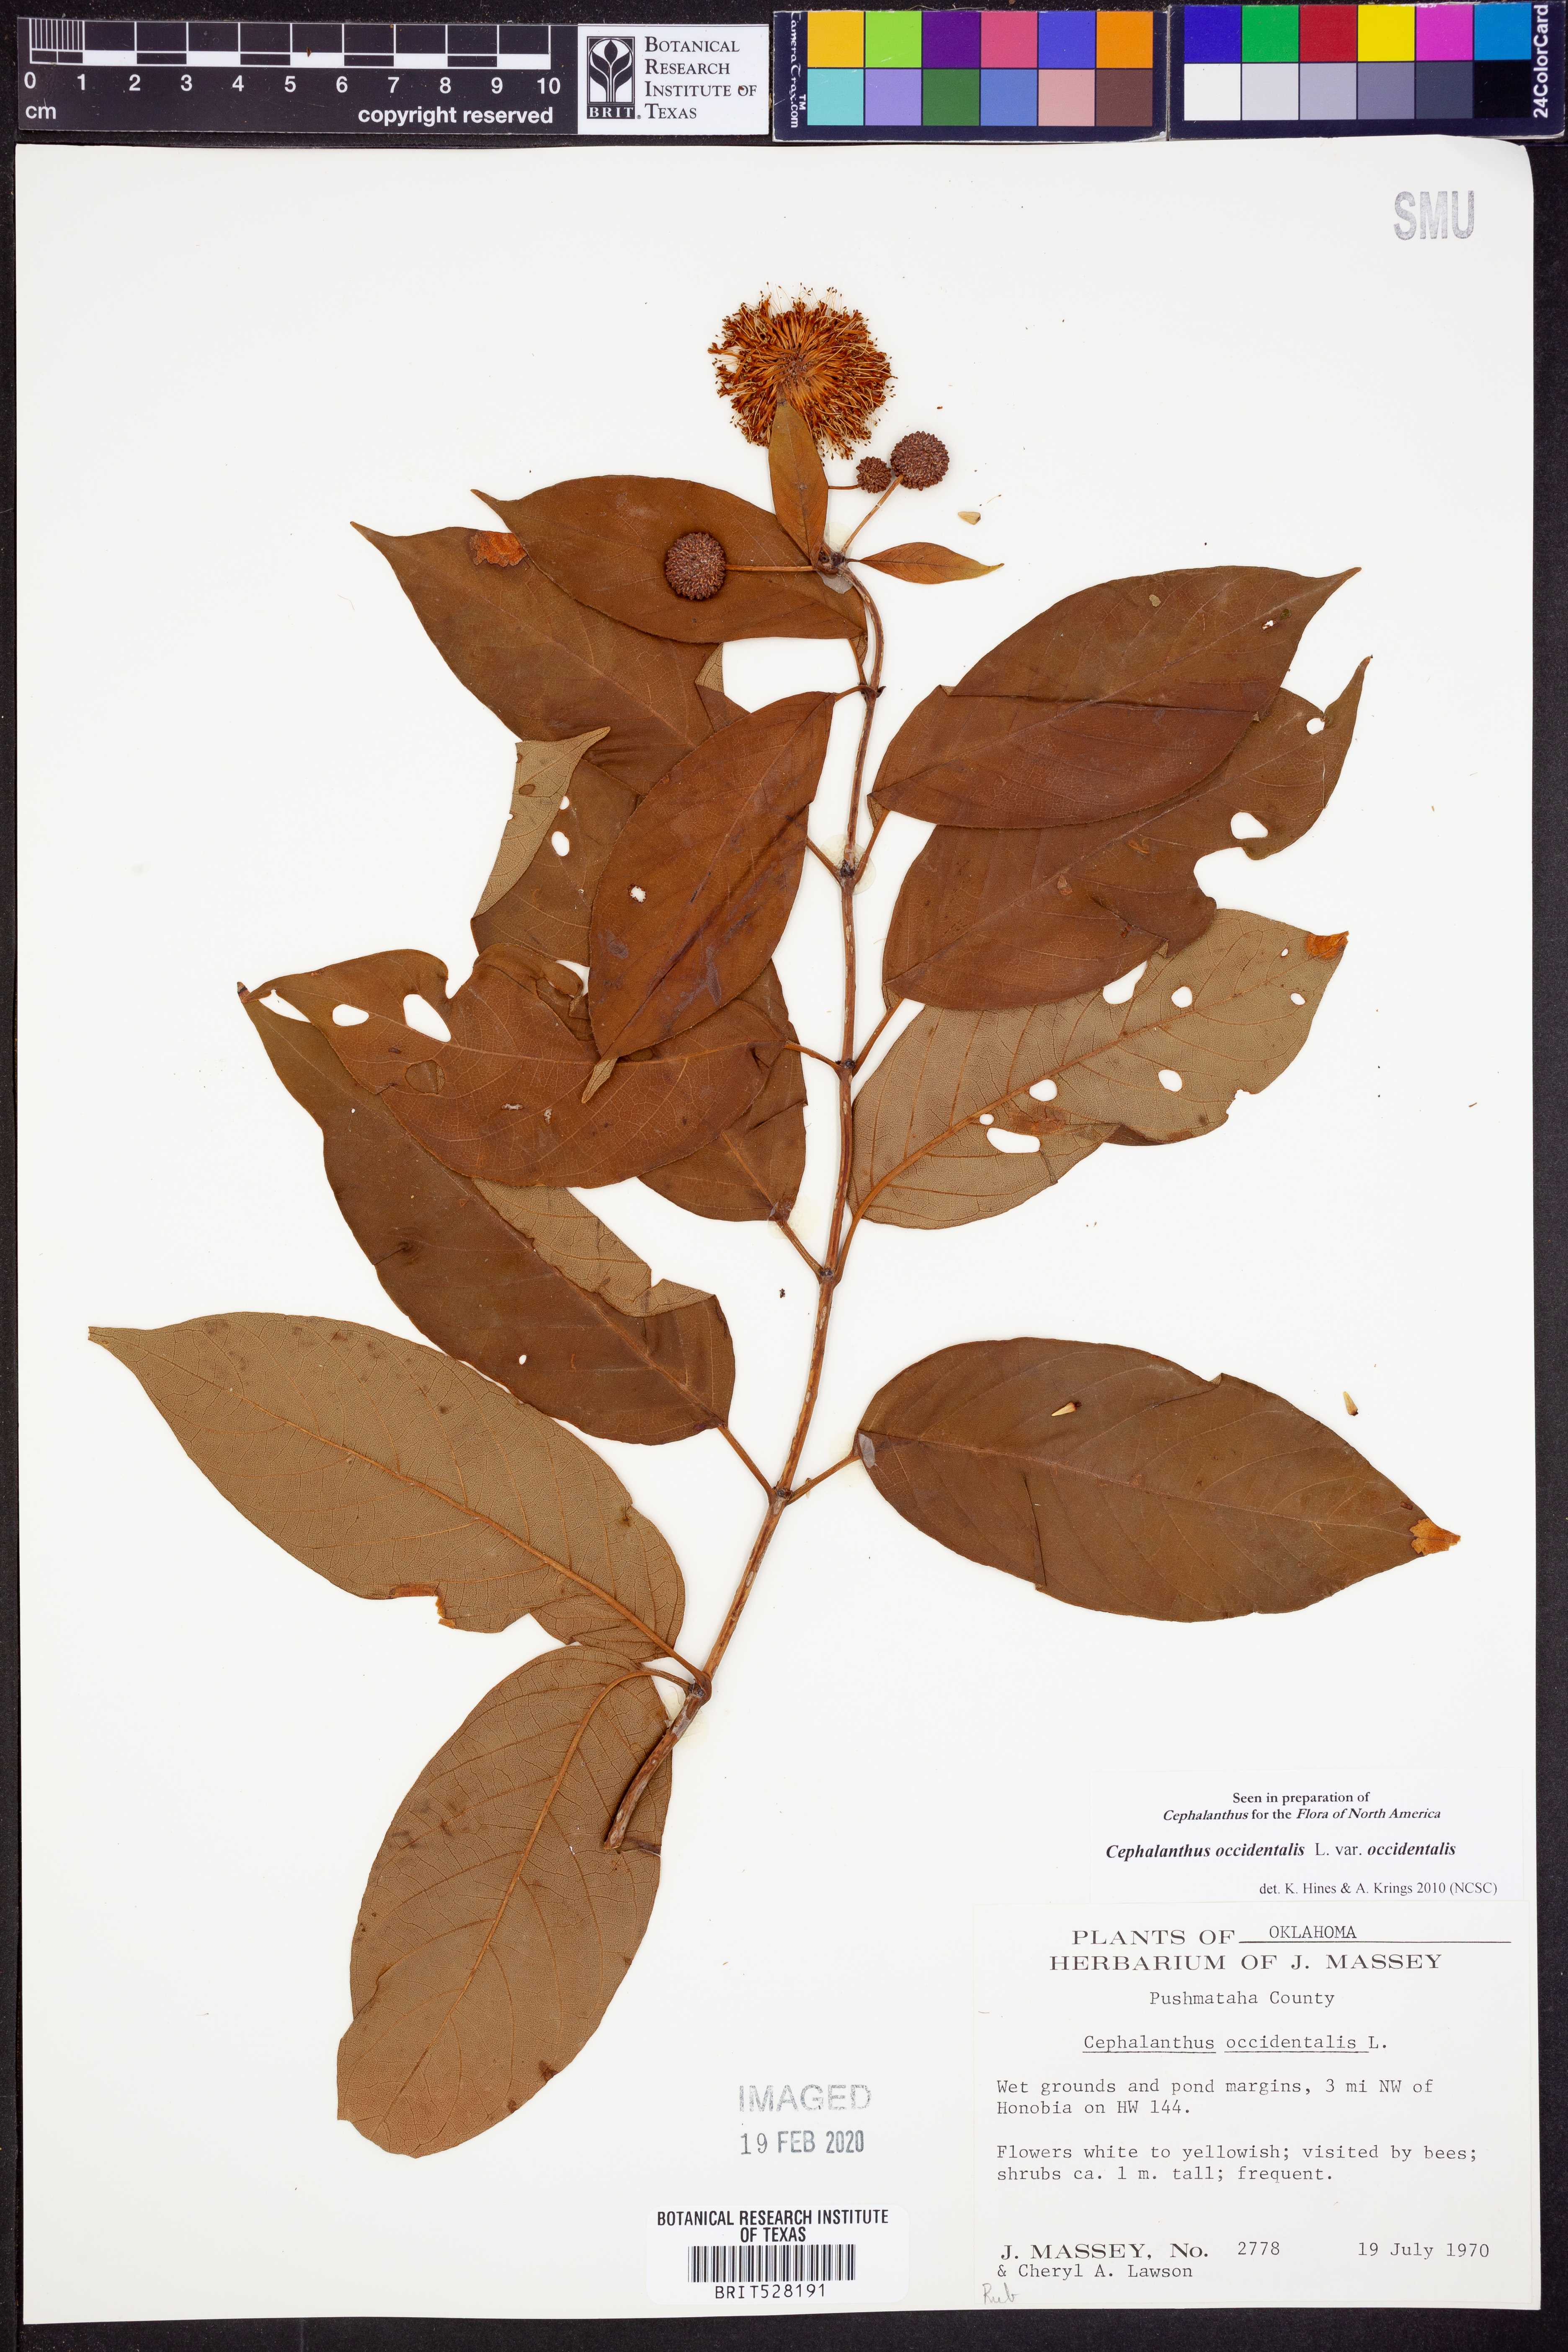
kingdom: Plantae
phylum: Tracheophyta
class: Magnoliopsida
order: Gentianales
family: Rubiaceae
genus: Cephalanthus
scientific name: Cephalanthus occidentalis
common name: Button-willow
